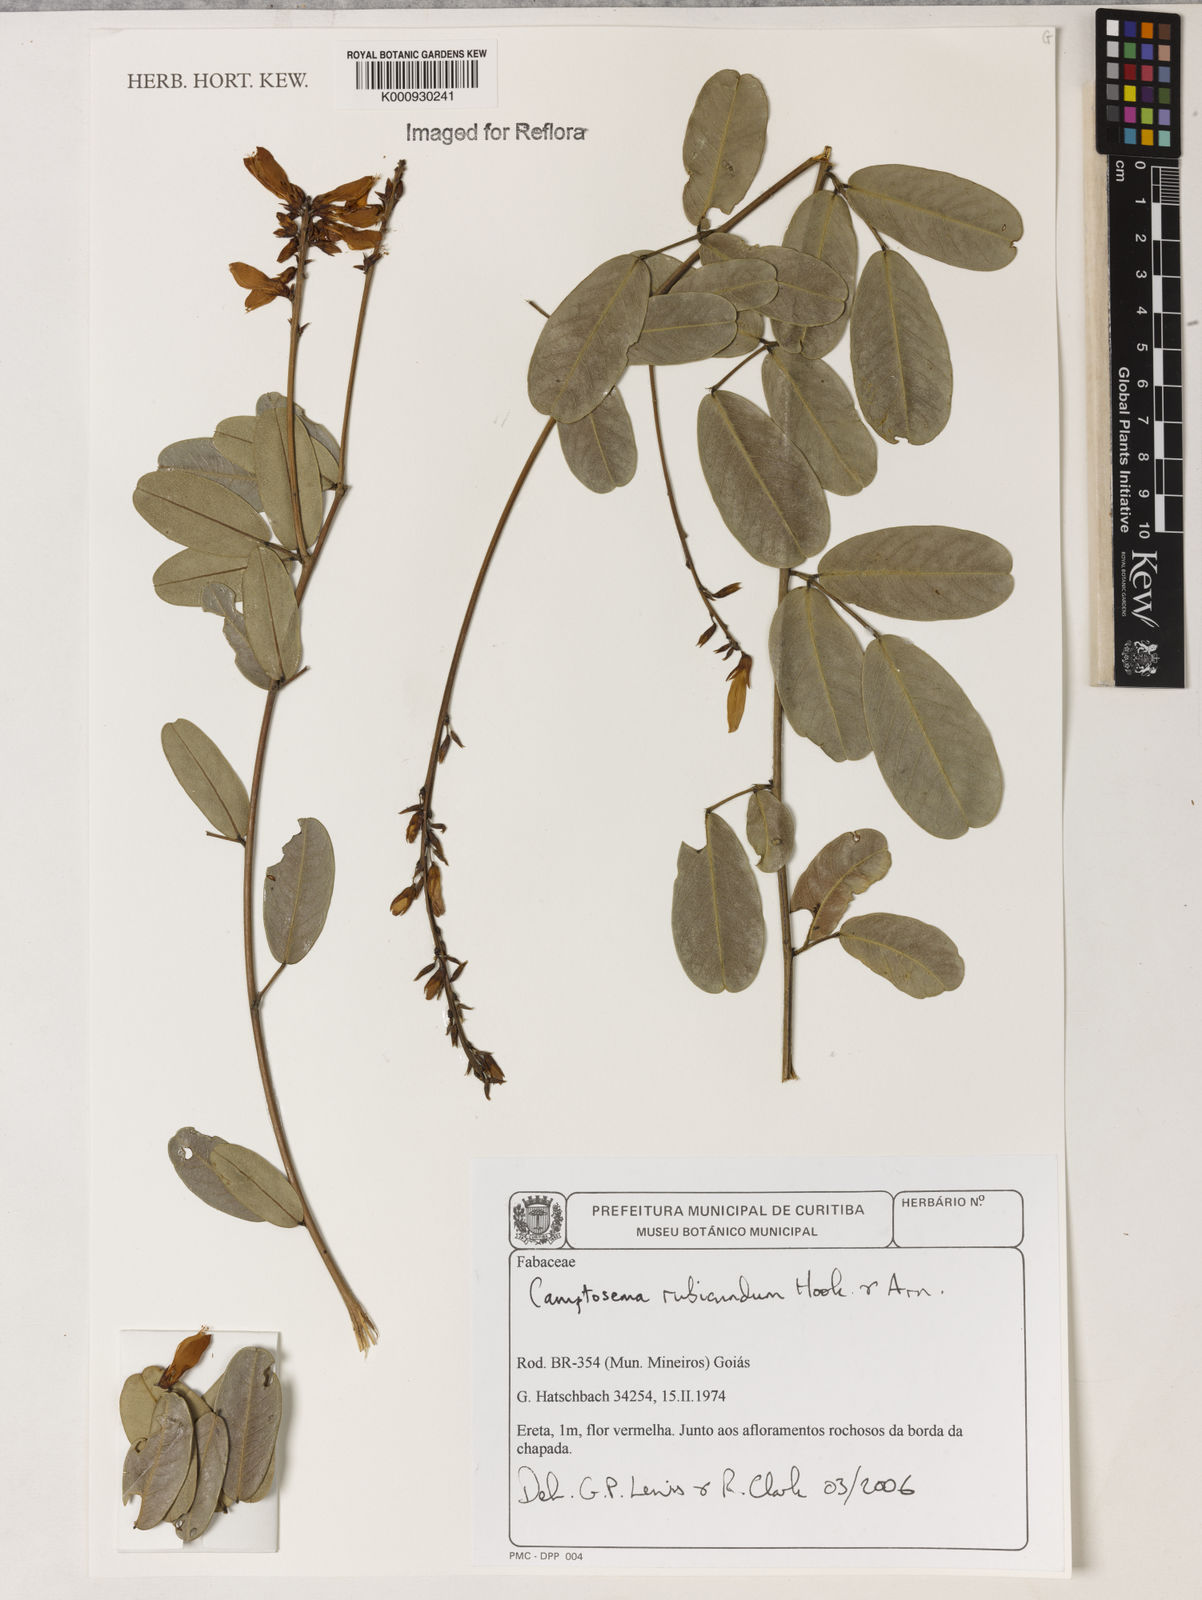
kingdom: Plantae
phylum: Tracheophyta
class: Magnoliopsida
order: Fabales
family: Fabaceae
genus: Camptosema
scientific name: Camptosema rubicundum
